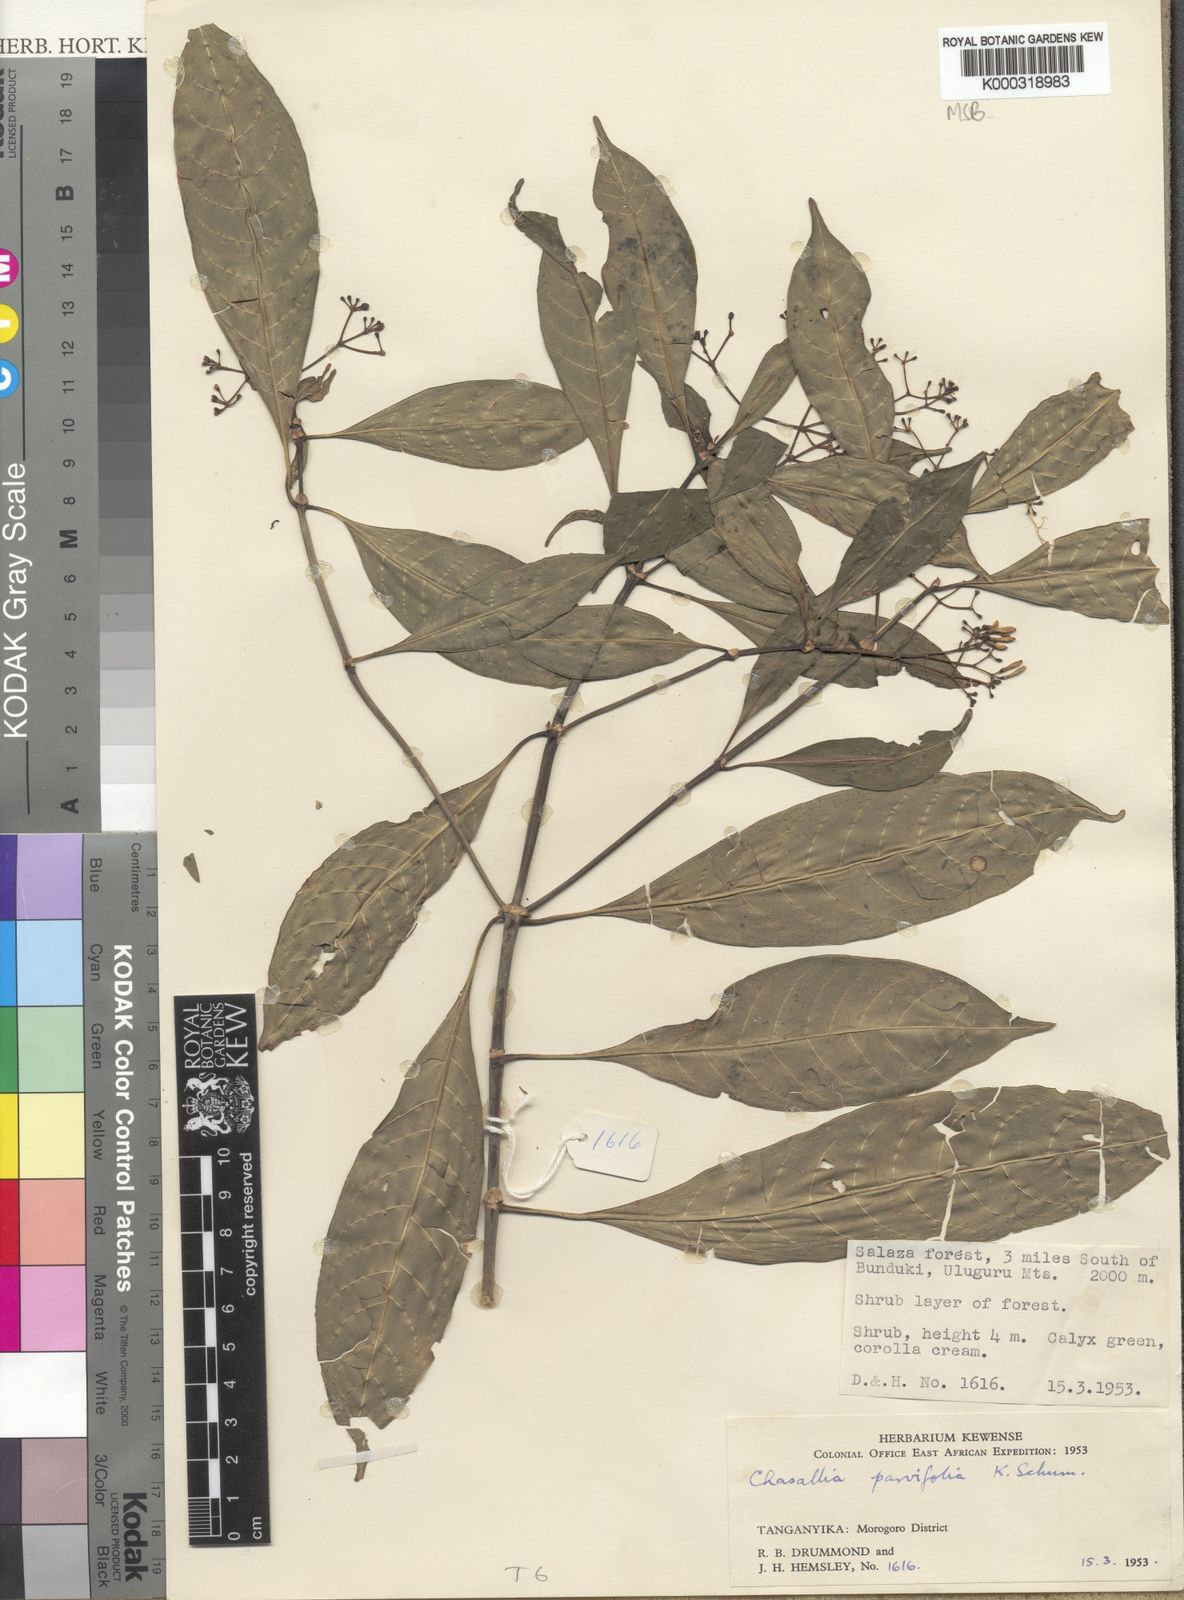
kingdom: Plantae
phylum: Tracheophyta
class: Magnoliopsida
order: Gentianales
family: Rubiaceae
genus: Chassalia
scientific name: Chassalia violacea
